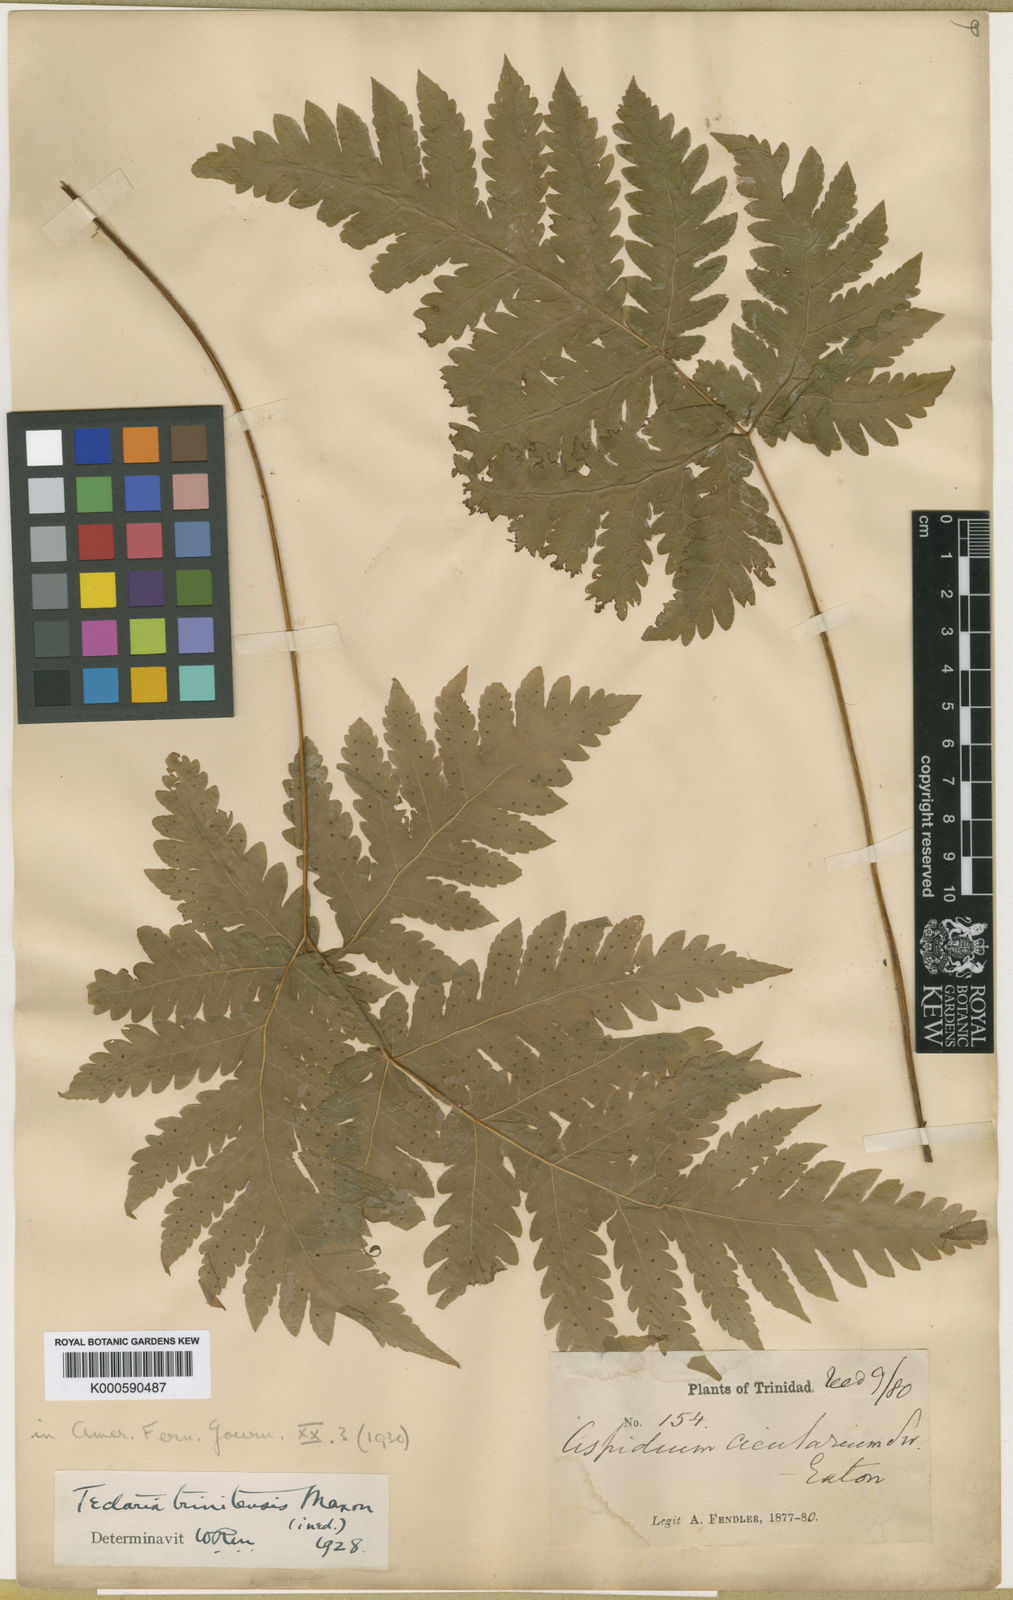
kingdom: Plantae
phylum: Tracheophyta
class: Polypodiopsida
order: Polypodiales
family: Tectariaceae
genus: Tectaria
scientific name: Tectaria trinitensis
